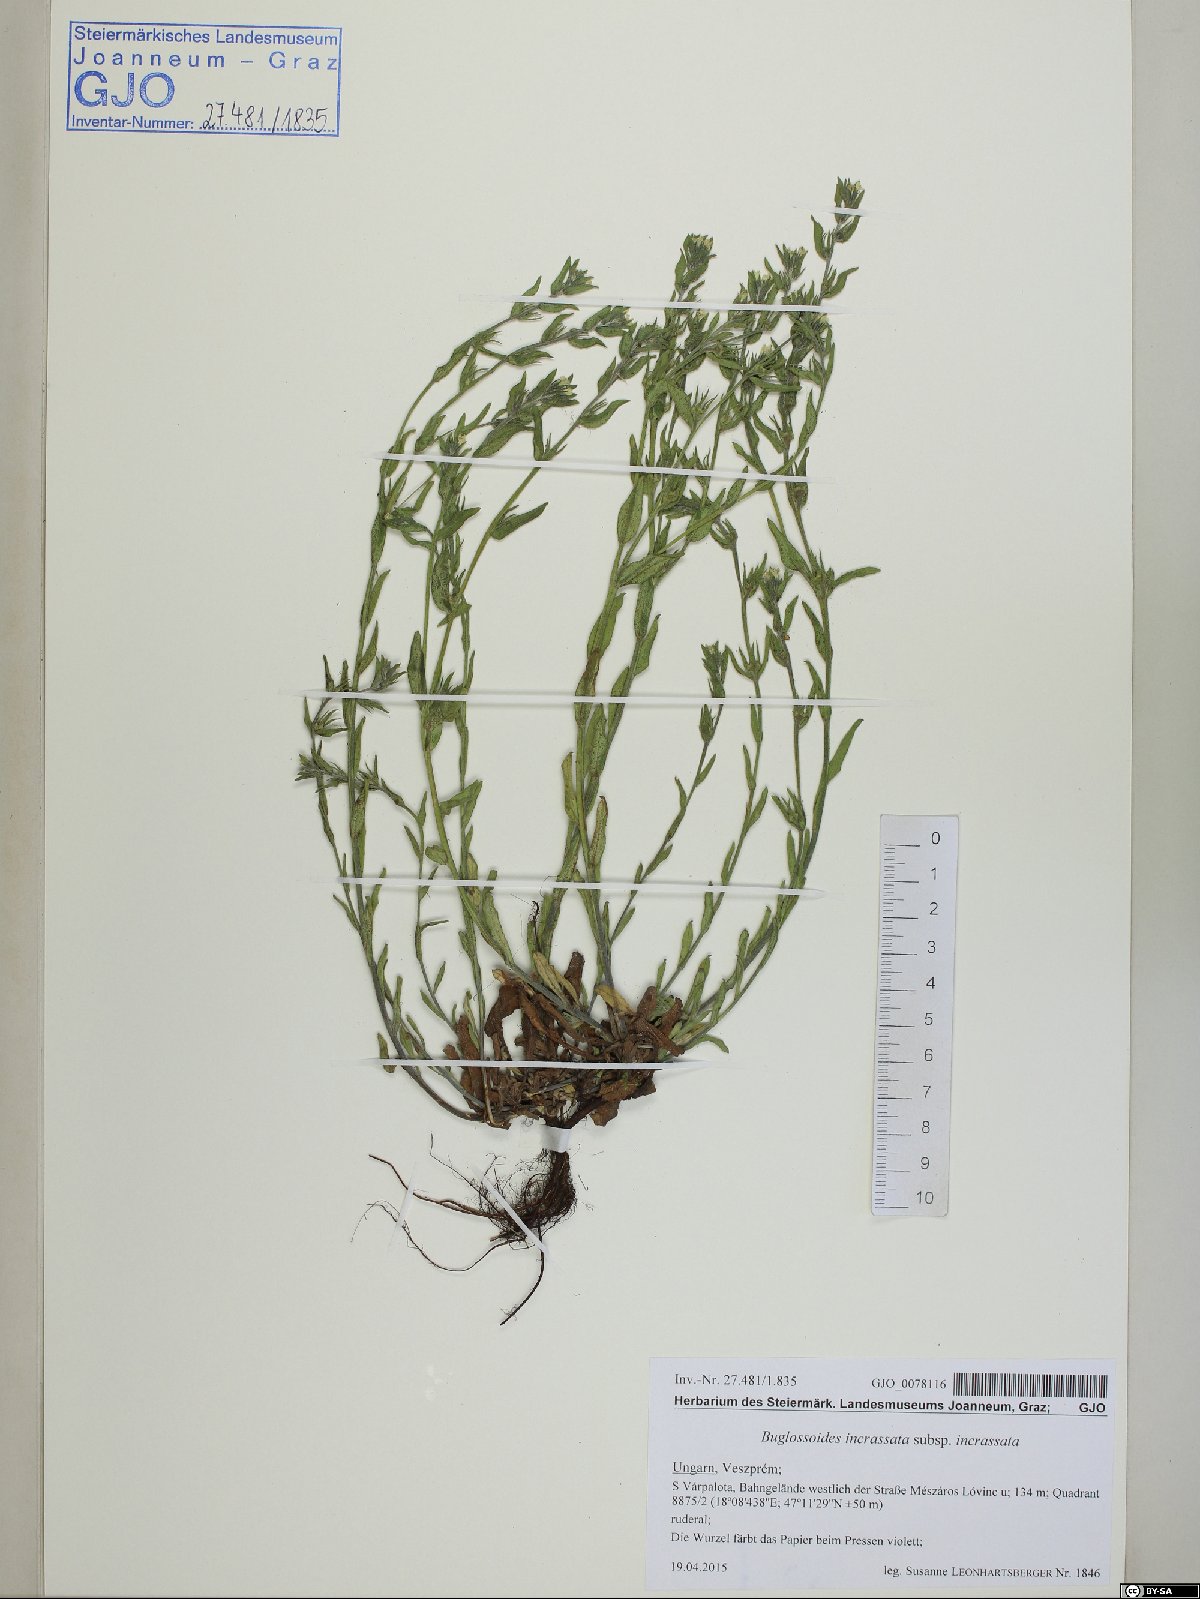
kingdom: Plantae
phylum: Tracheophyta
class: Magnoliopsida
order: Boraginales
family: Boraginaceae
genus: Buglossoides
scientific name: Buglossoides incrassata
